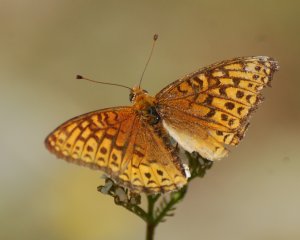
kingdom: Animalia
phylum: Arthropoda
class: Insecta
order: Lepidoptera
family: Nymphalidae
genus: Speyeria
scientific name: Speyeria atlantis
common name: Atlantis Fritillary
